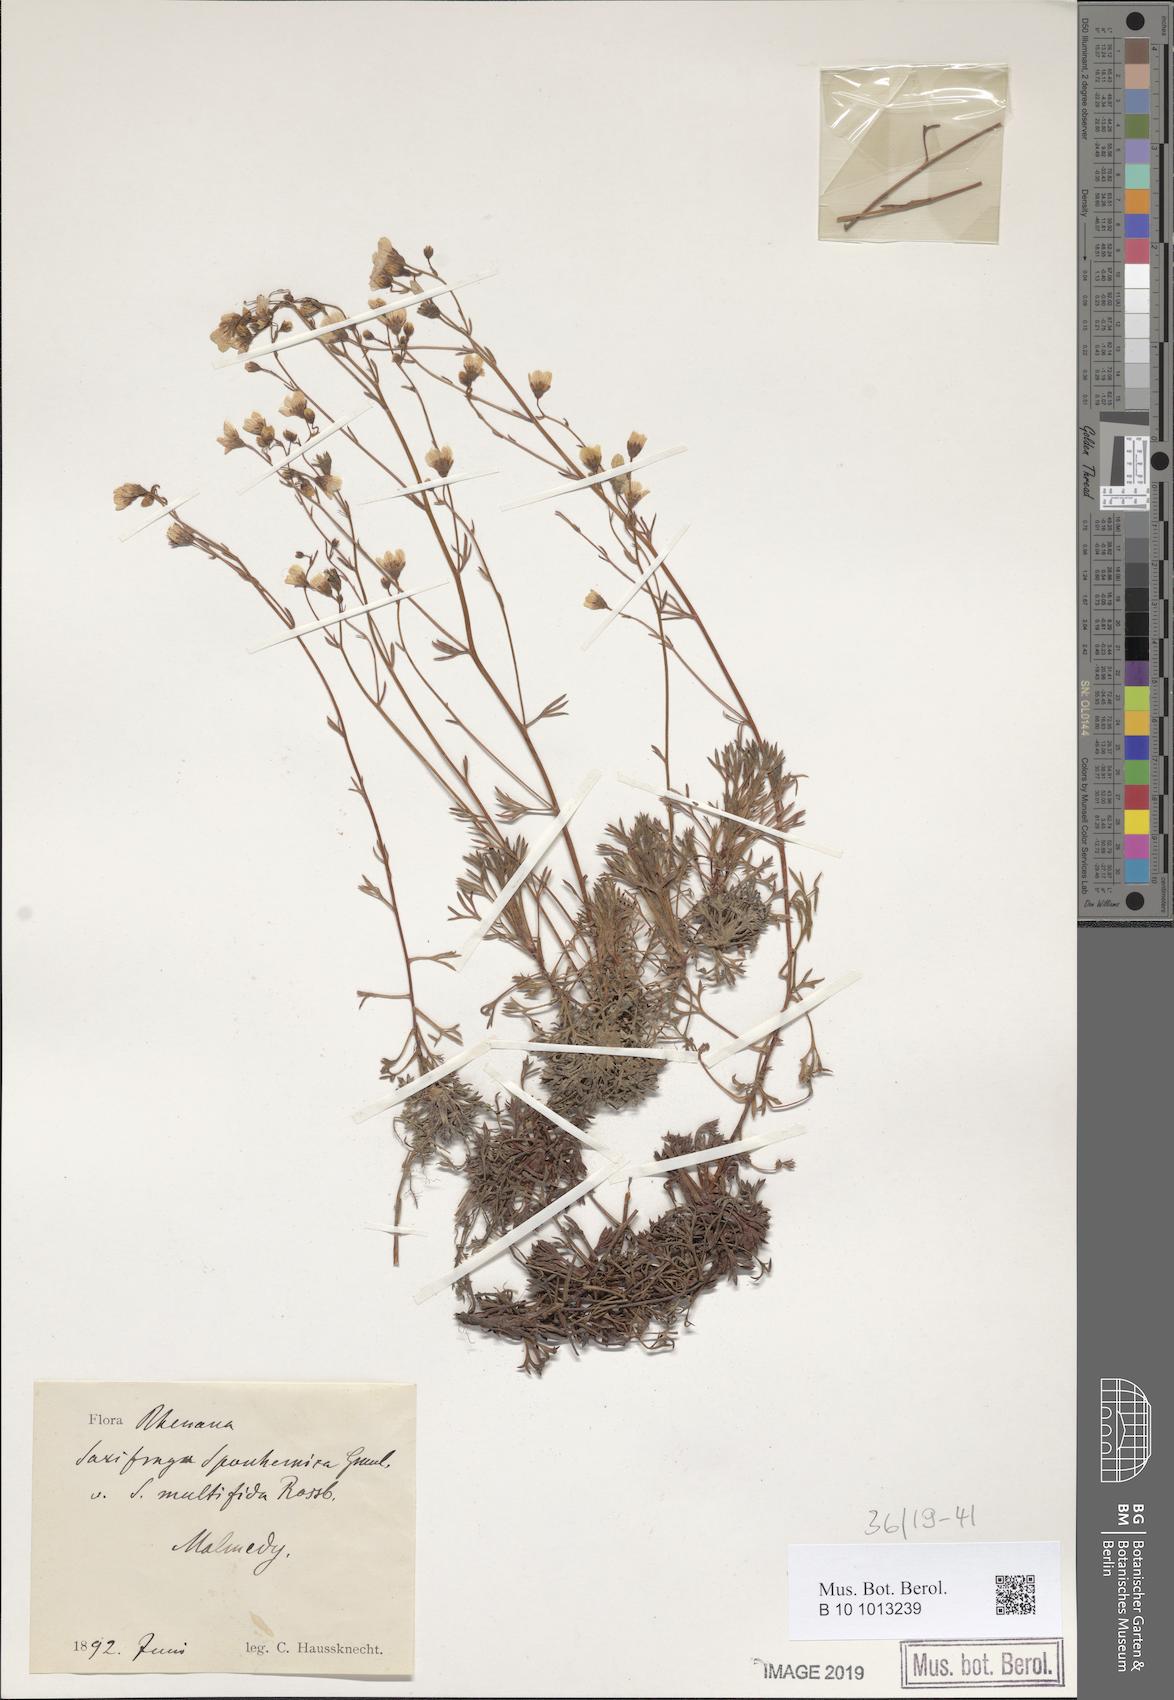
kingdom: Plantae
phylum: Tracheophyta
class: Magnoliopsida
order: Saxifragales
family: Saxifragaceae
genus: Saxifraga
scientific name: Saxifraga rosacea
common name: Irish saxifrage
